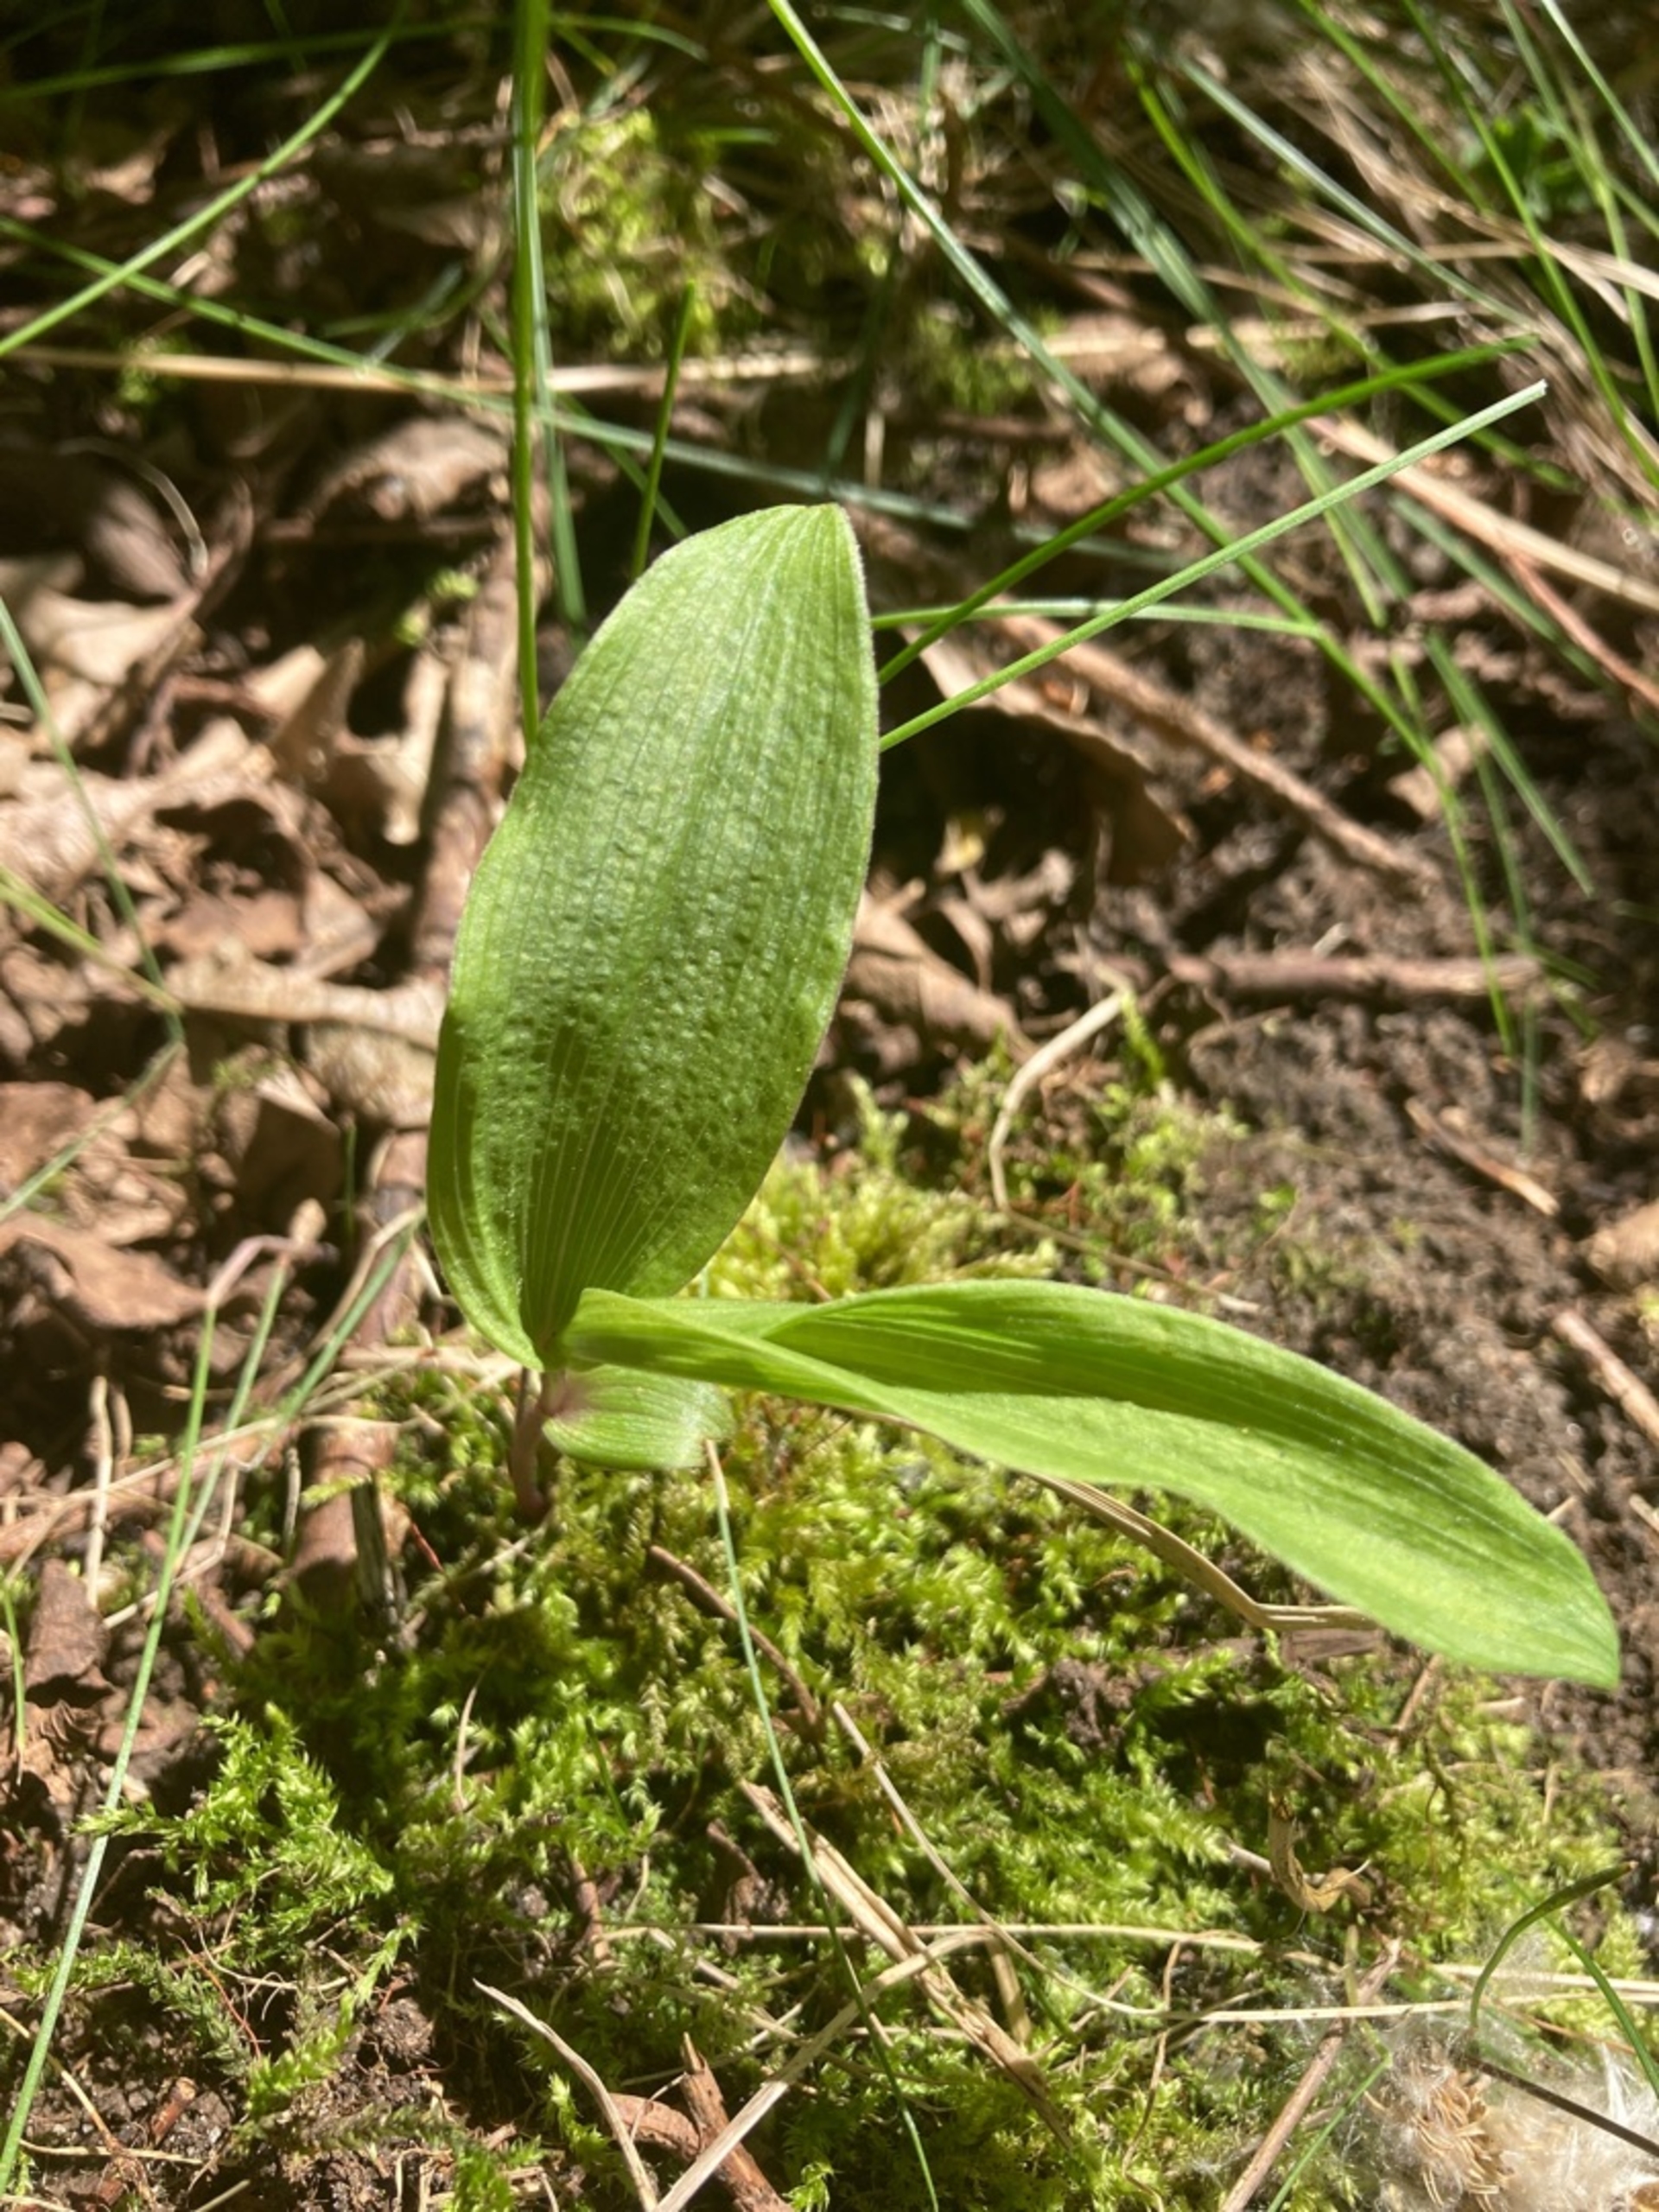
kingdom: Plantae
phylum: Tracheophyta
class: Liliopsida
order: Asparagales
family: Orchidaceae
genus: Epipactis
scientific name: Epipactis helleborine
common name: Skov-hullæbe
